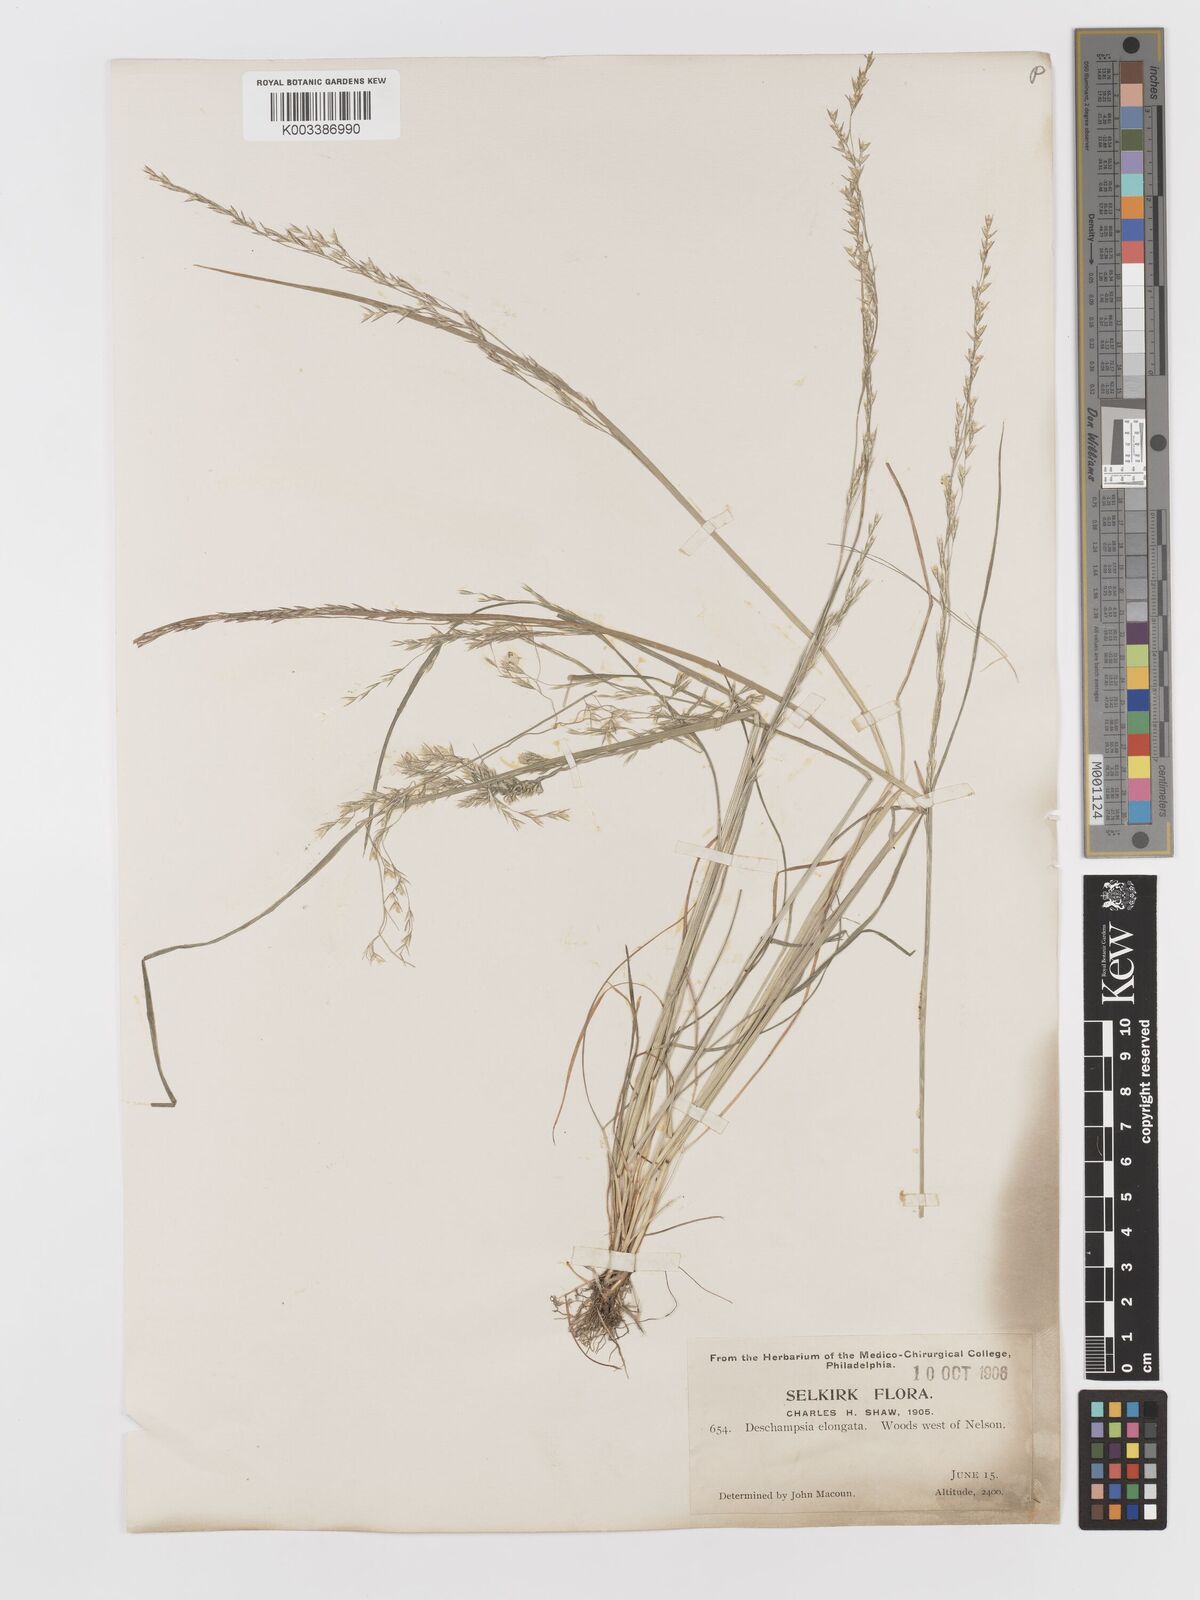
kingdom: Plantae
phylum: Tracheophyta
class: Liliopsida
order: Poales
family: Poaceae
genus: Deschampsia
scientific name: Deschampsia elongata
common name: Slender hairgrass
